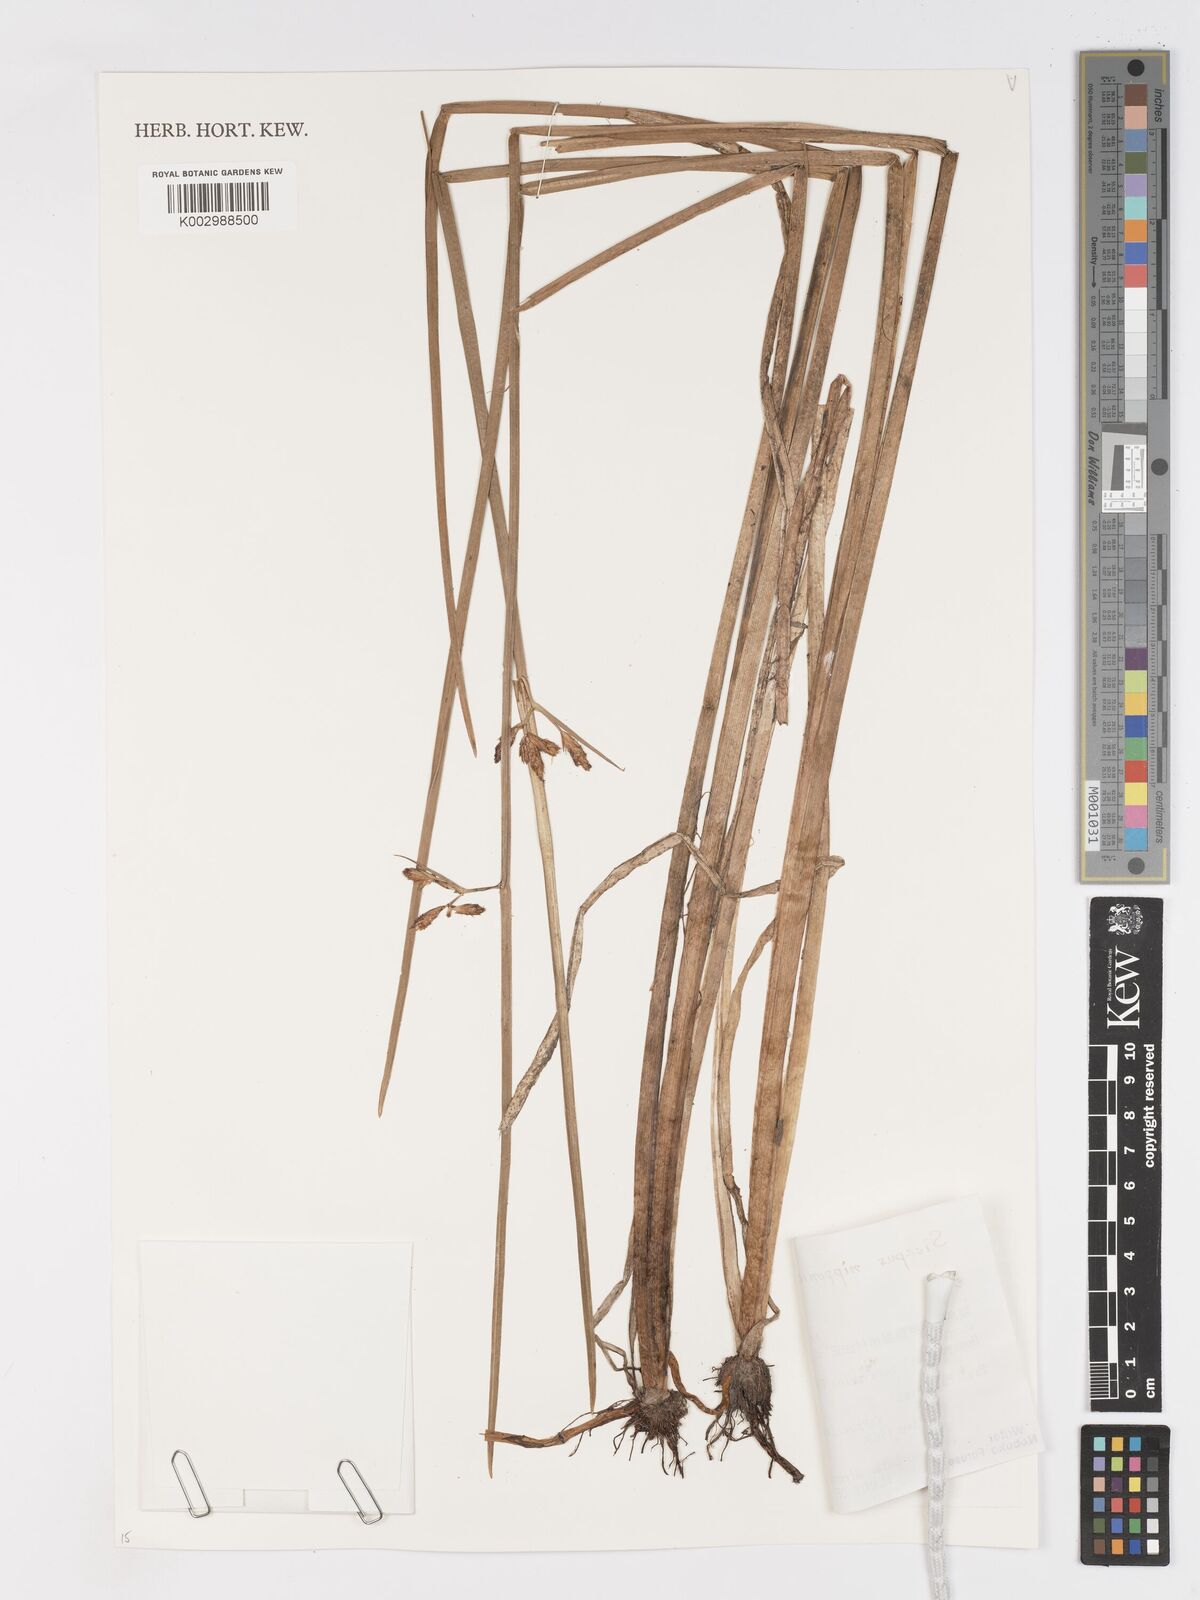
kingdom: Plantae
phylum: Tracheophyta
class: Liliopsida
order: Poales
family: Cyperaceae
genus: Schoenoplectus
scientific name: Schoenoplectus nipponicus
